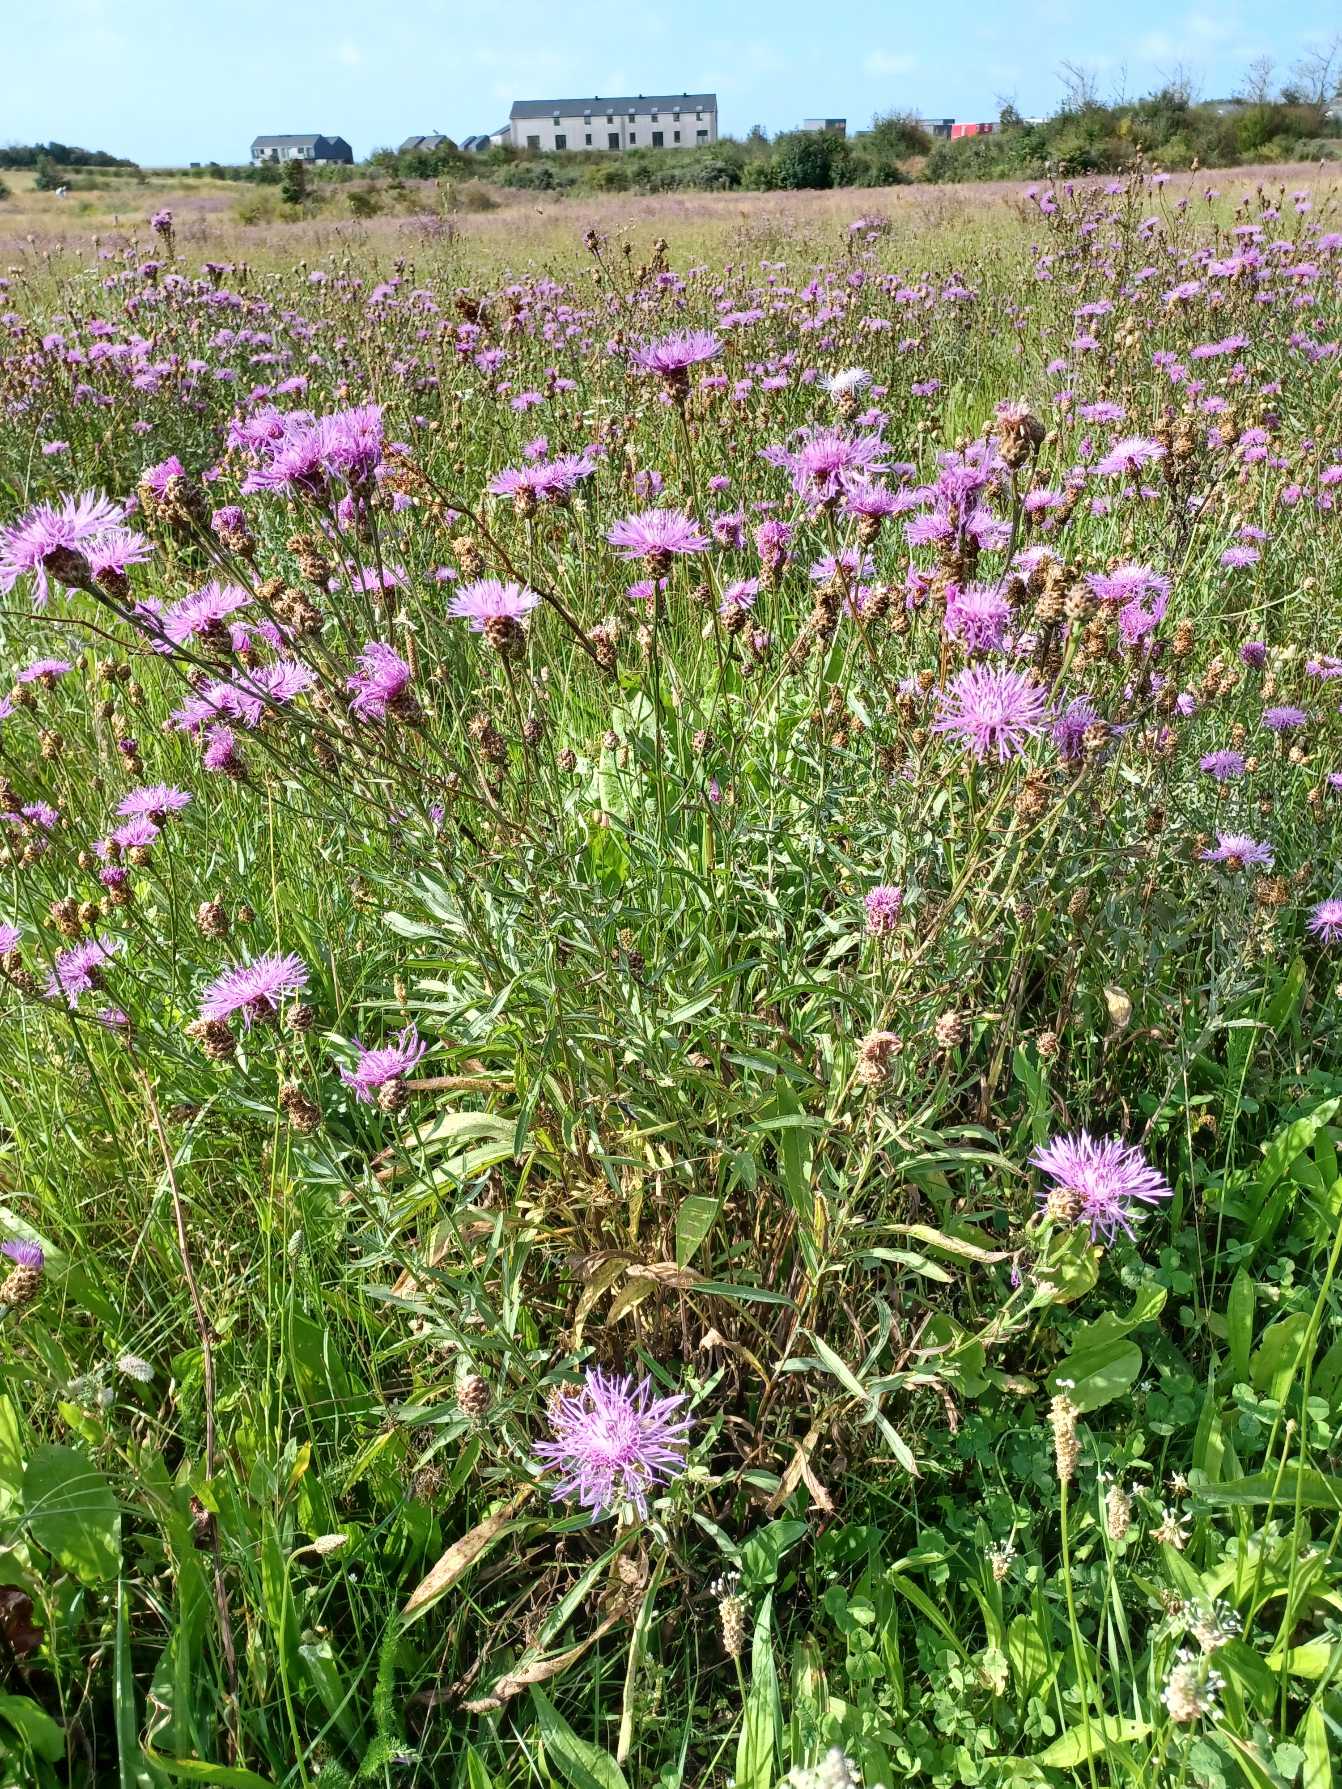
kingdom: Plantae
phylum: Tracheophyta
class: Magnoliopsida
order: Asterales
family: Asteraceae
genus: Centaurea
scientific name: Centaurea jacea
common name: Almindelig knopurt
